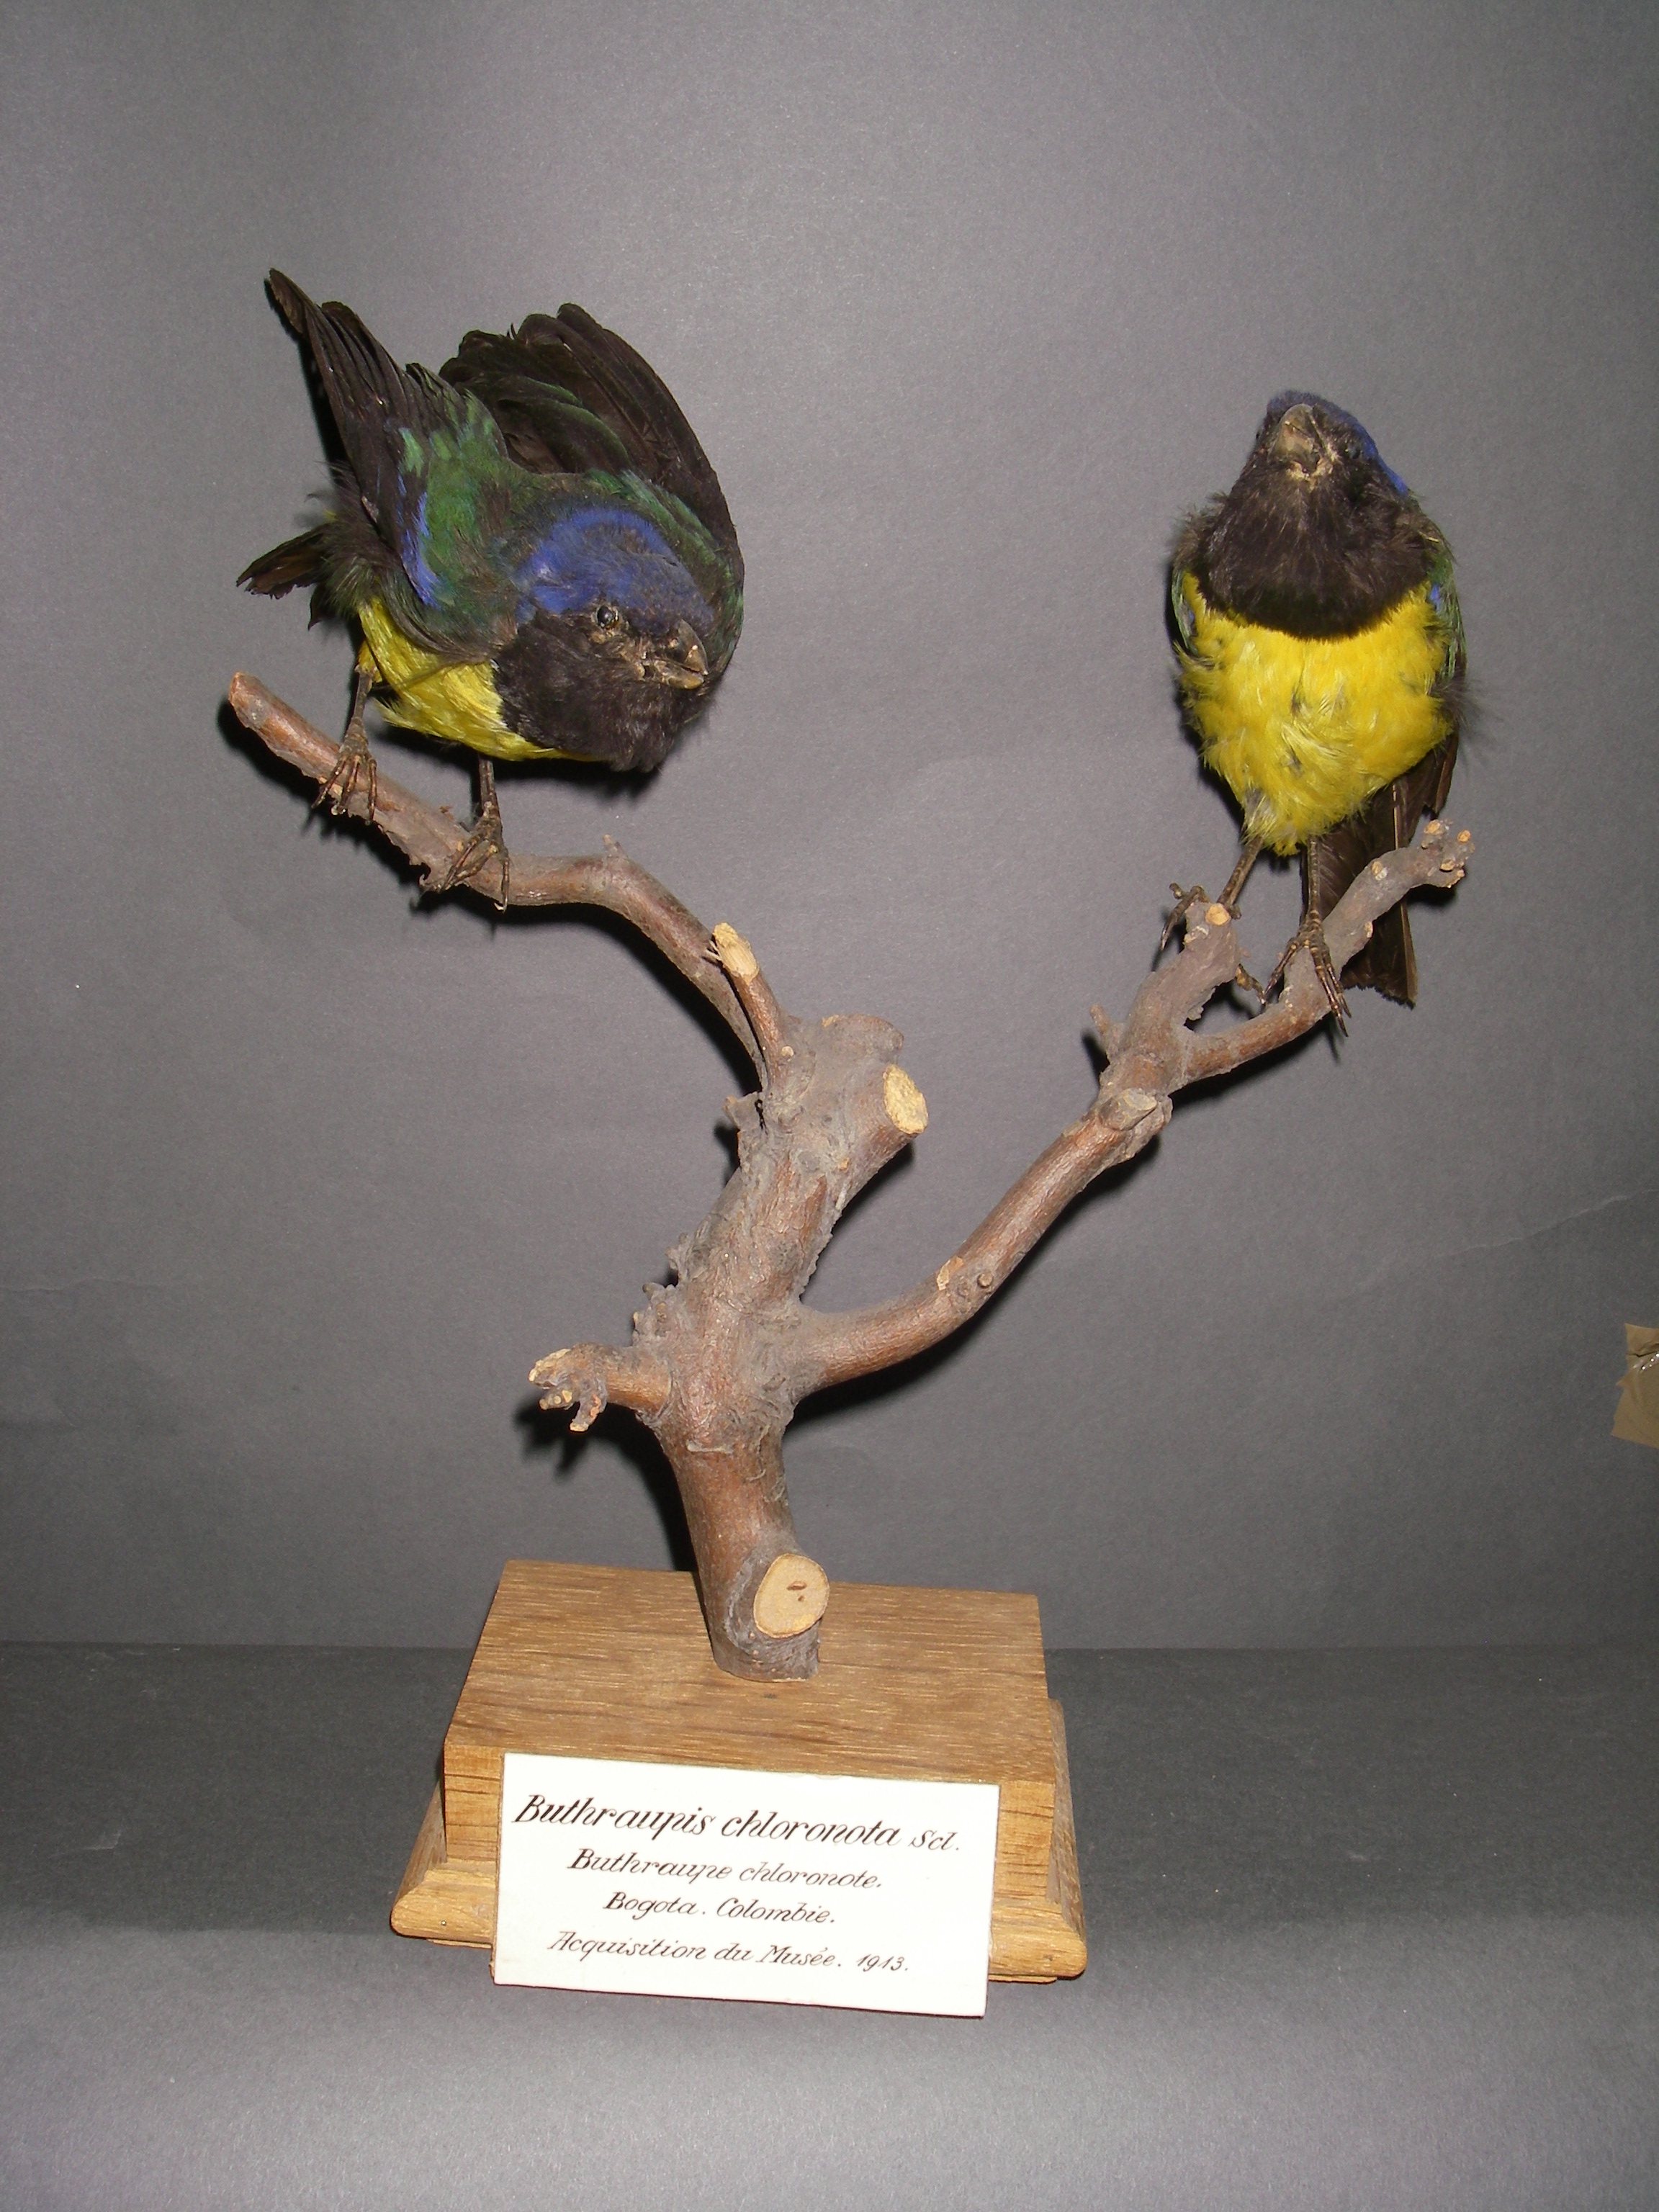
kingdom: Animalia
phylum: Chordata
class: Aves
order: Passeriformes
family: Thraupidae
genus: Cnemathraupis
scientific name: Cnemathraupis eximia
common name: Black-chested mountain-tanager
